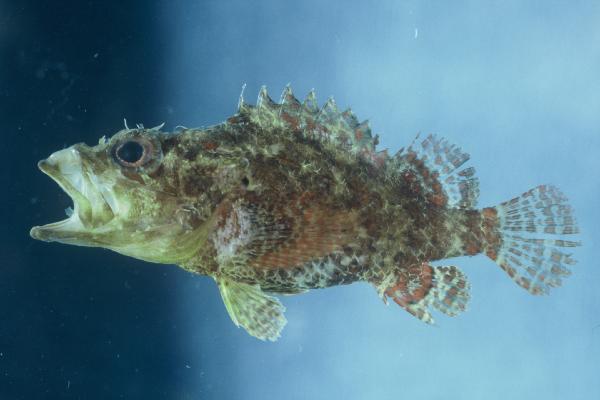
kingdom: Animalia
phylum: Chordata
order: Scorpaeniformes
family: Scorpaenidae
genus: Scorpaenodes
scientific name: Scorpaenodes parvipinnis
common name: Coral scorpionfish
